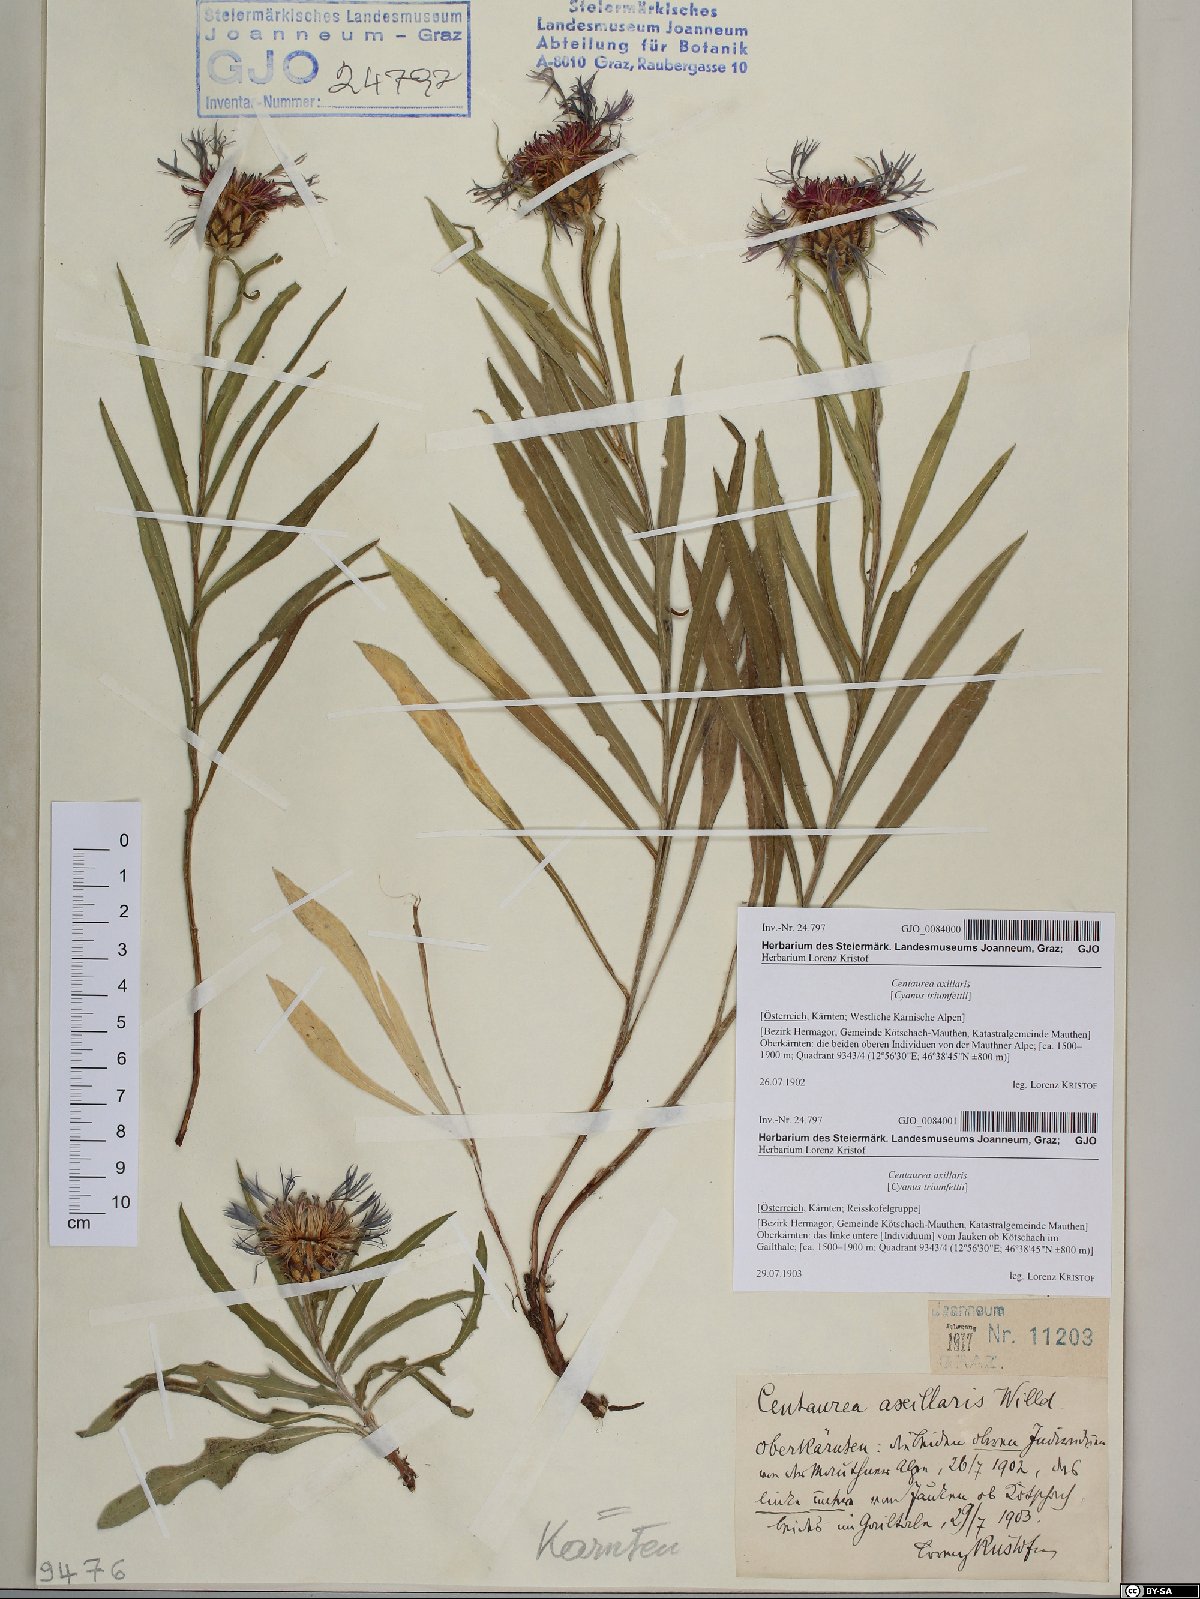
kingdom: Plantae
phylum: Tracheophyta
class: Magnoliopsida
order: Asterales
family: Asteraceae
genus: Centaurea
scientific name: Centaurea triumfettii
